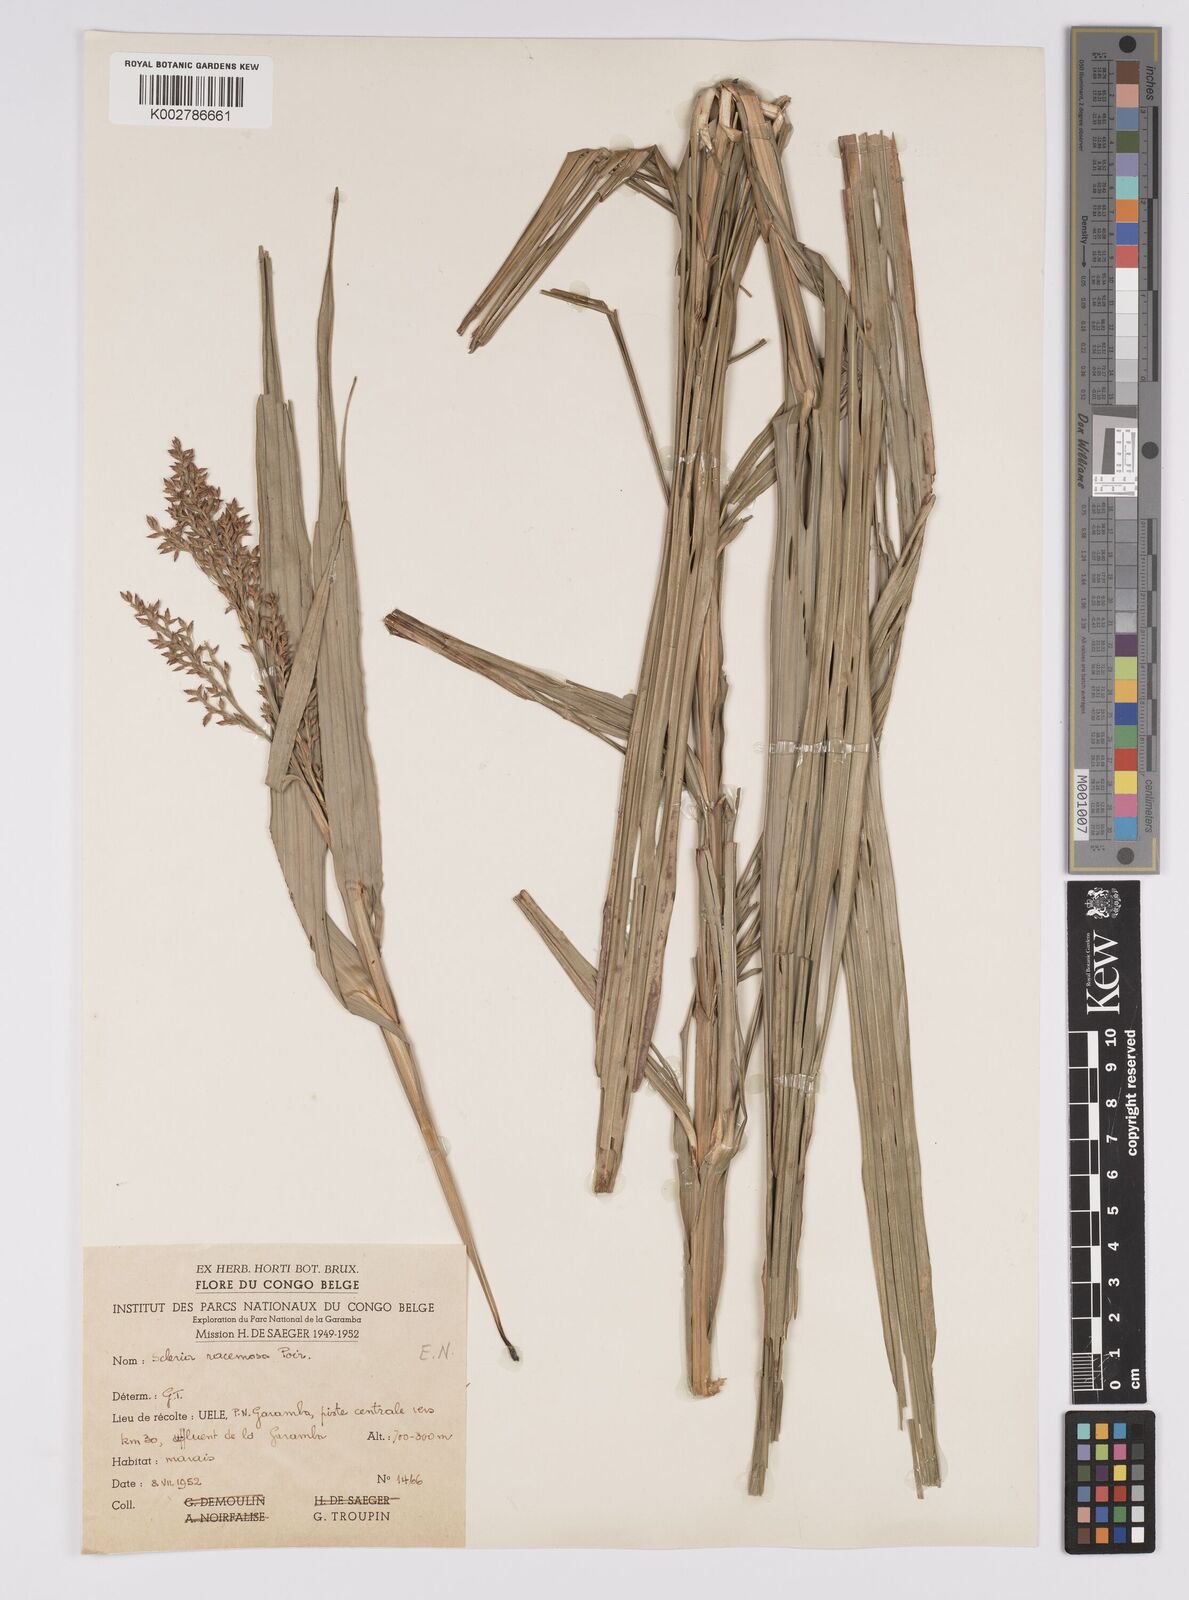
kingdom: Plantae
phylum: Tracheophyta
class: Liliopsida
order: Poales
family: Cyperaceae
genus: Scleria
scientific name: Scleria racemosa
